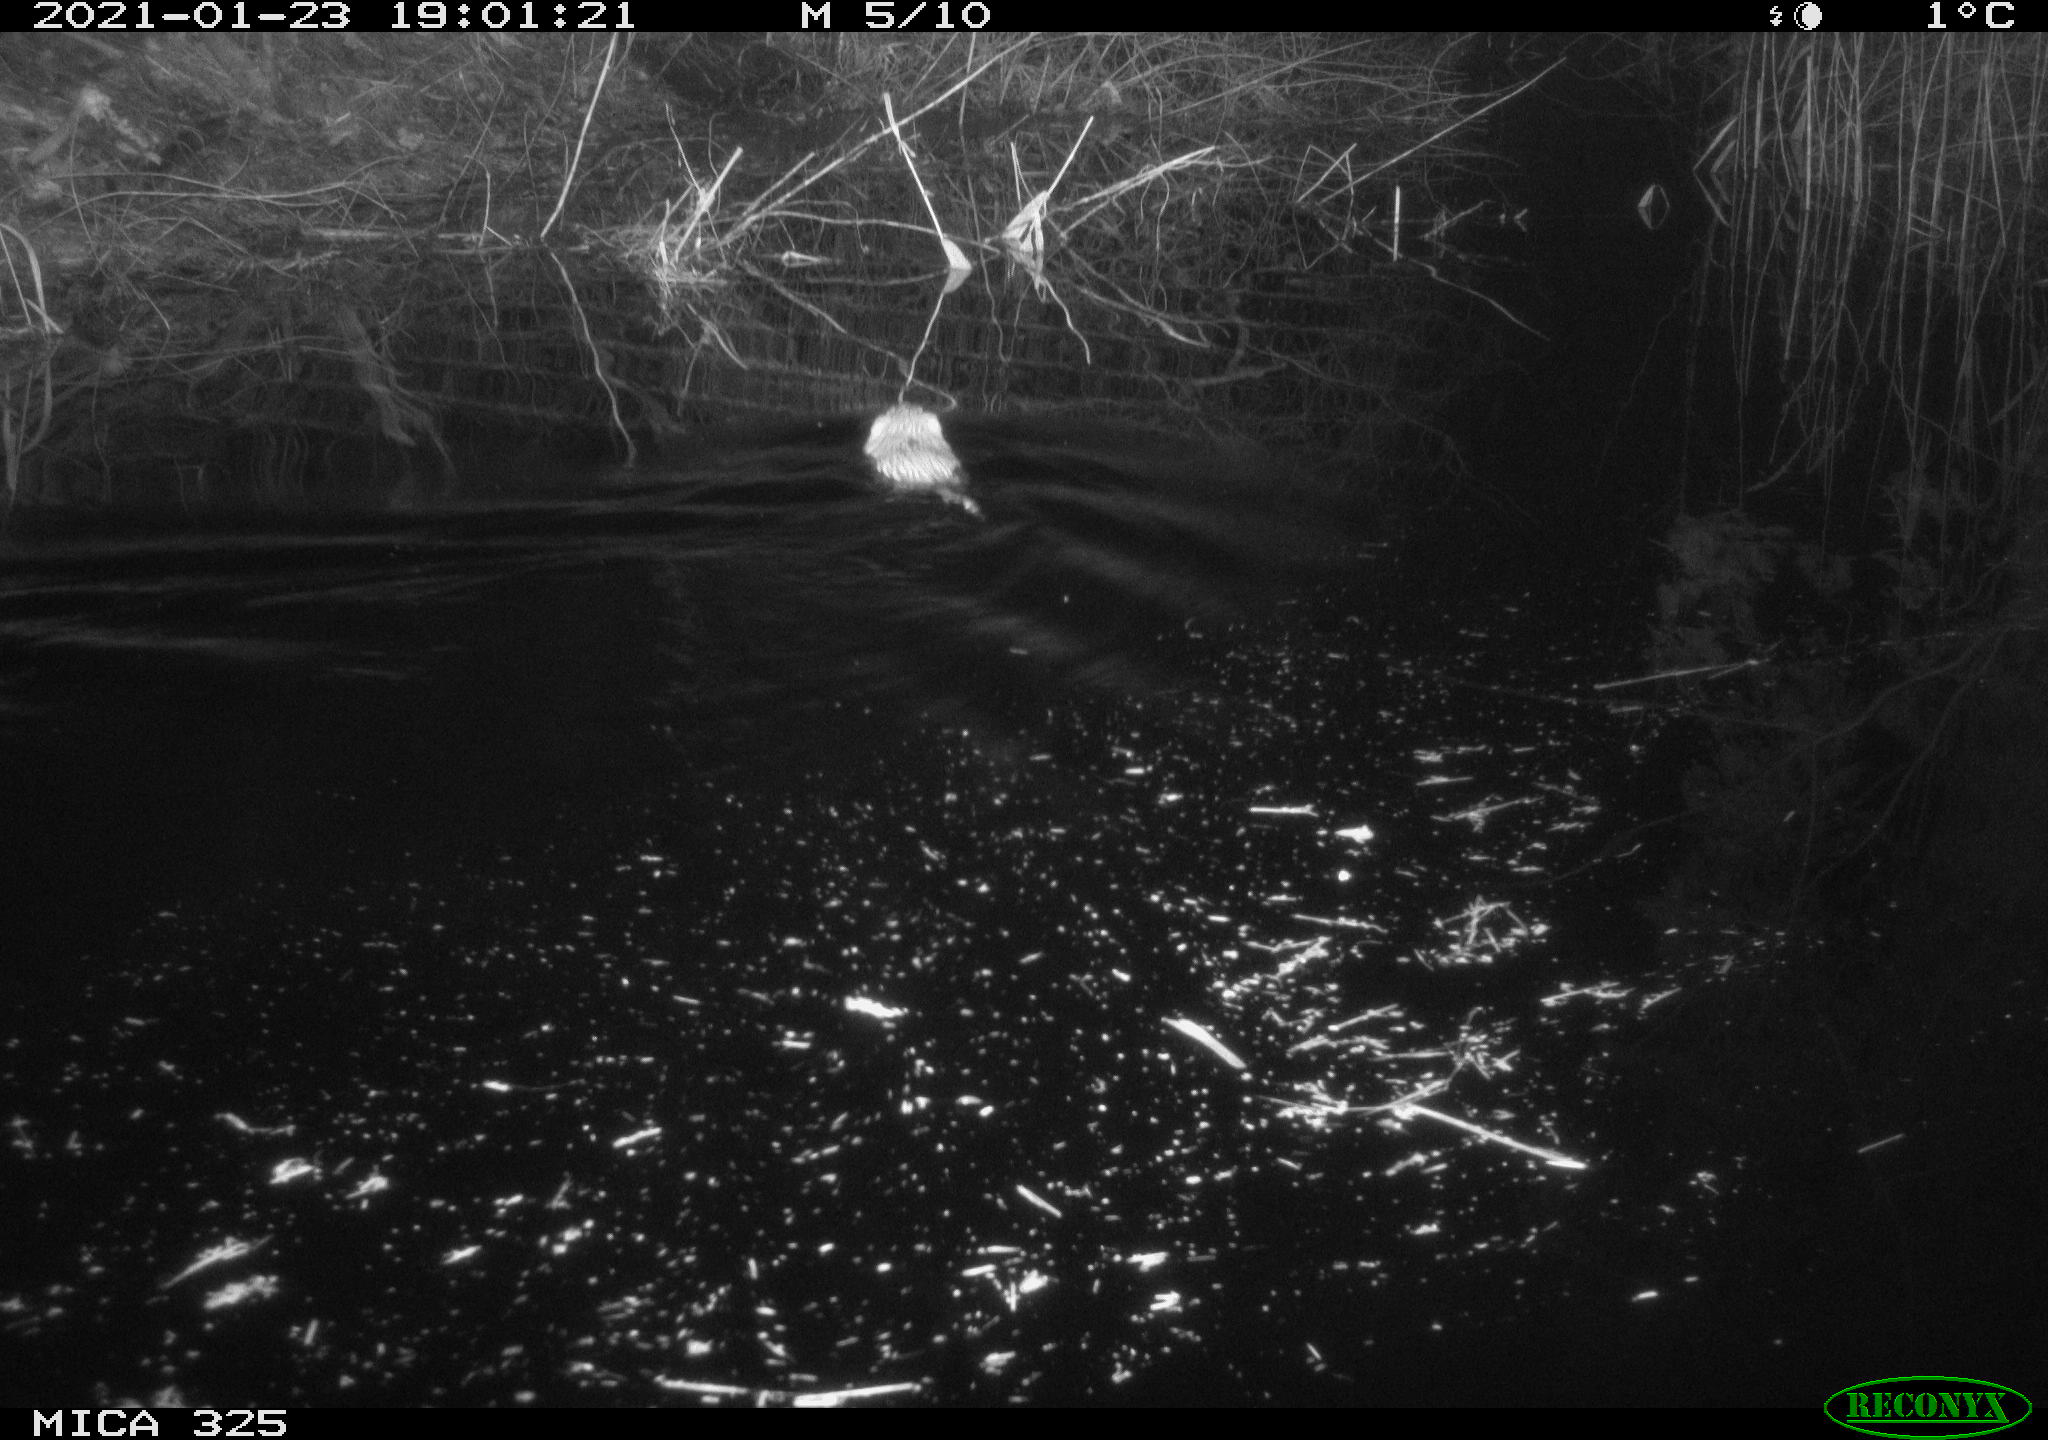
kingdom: Animalia
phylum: Chordata
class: Mammalia
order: Rodentia
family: Cricetidae
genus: Ondatra
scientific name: Ondatra zibethicus
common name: Muskrat
